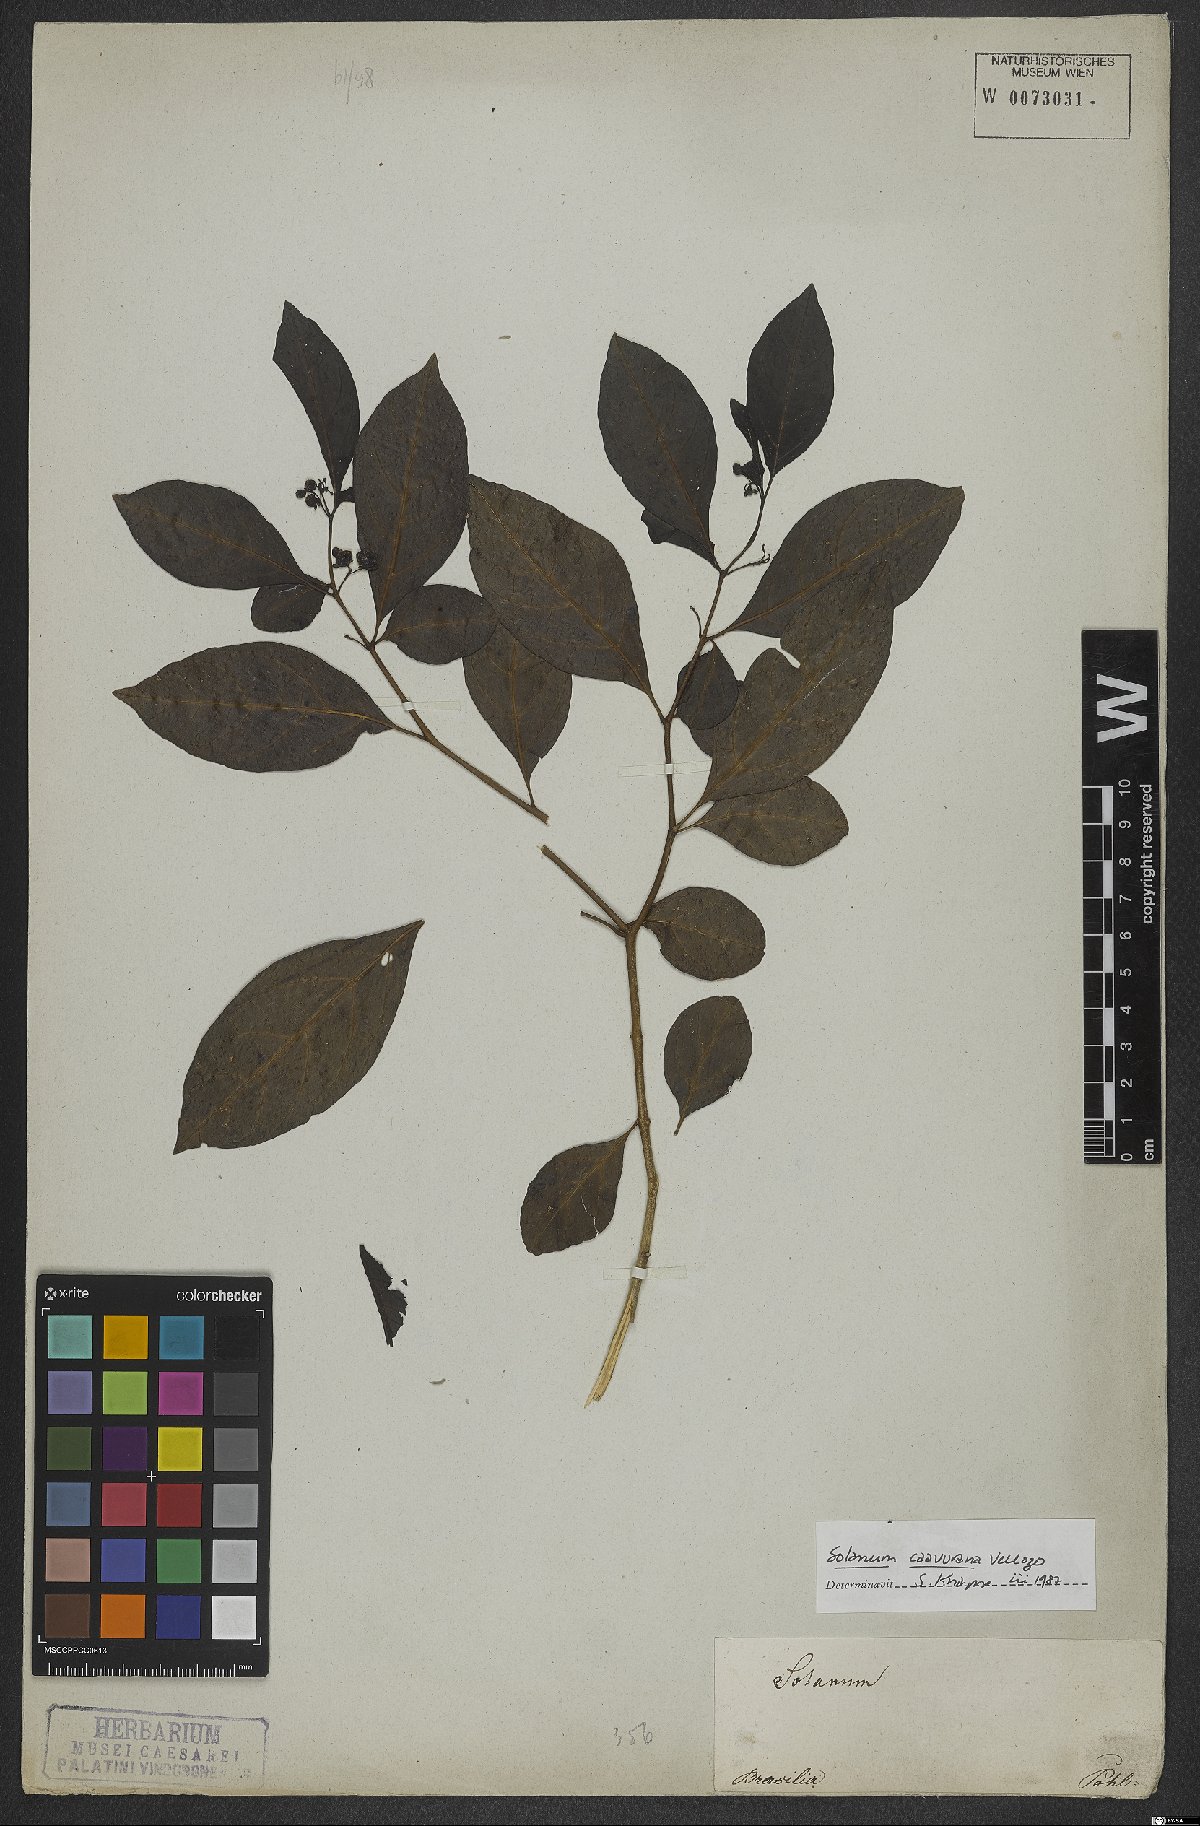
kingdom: Plantae
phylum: Tracheophyta
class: Magnoliopsida
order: Solanales
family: Solanaceae
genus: Solanum
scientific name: Solanum caavurana
